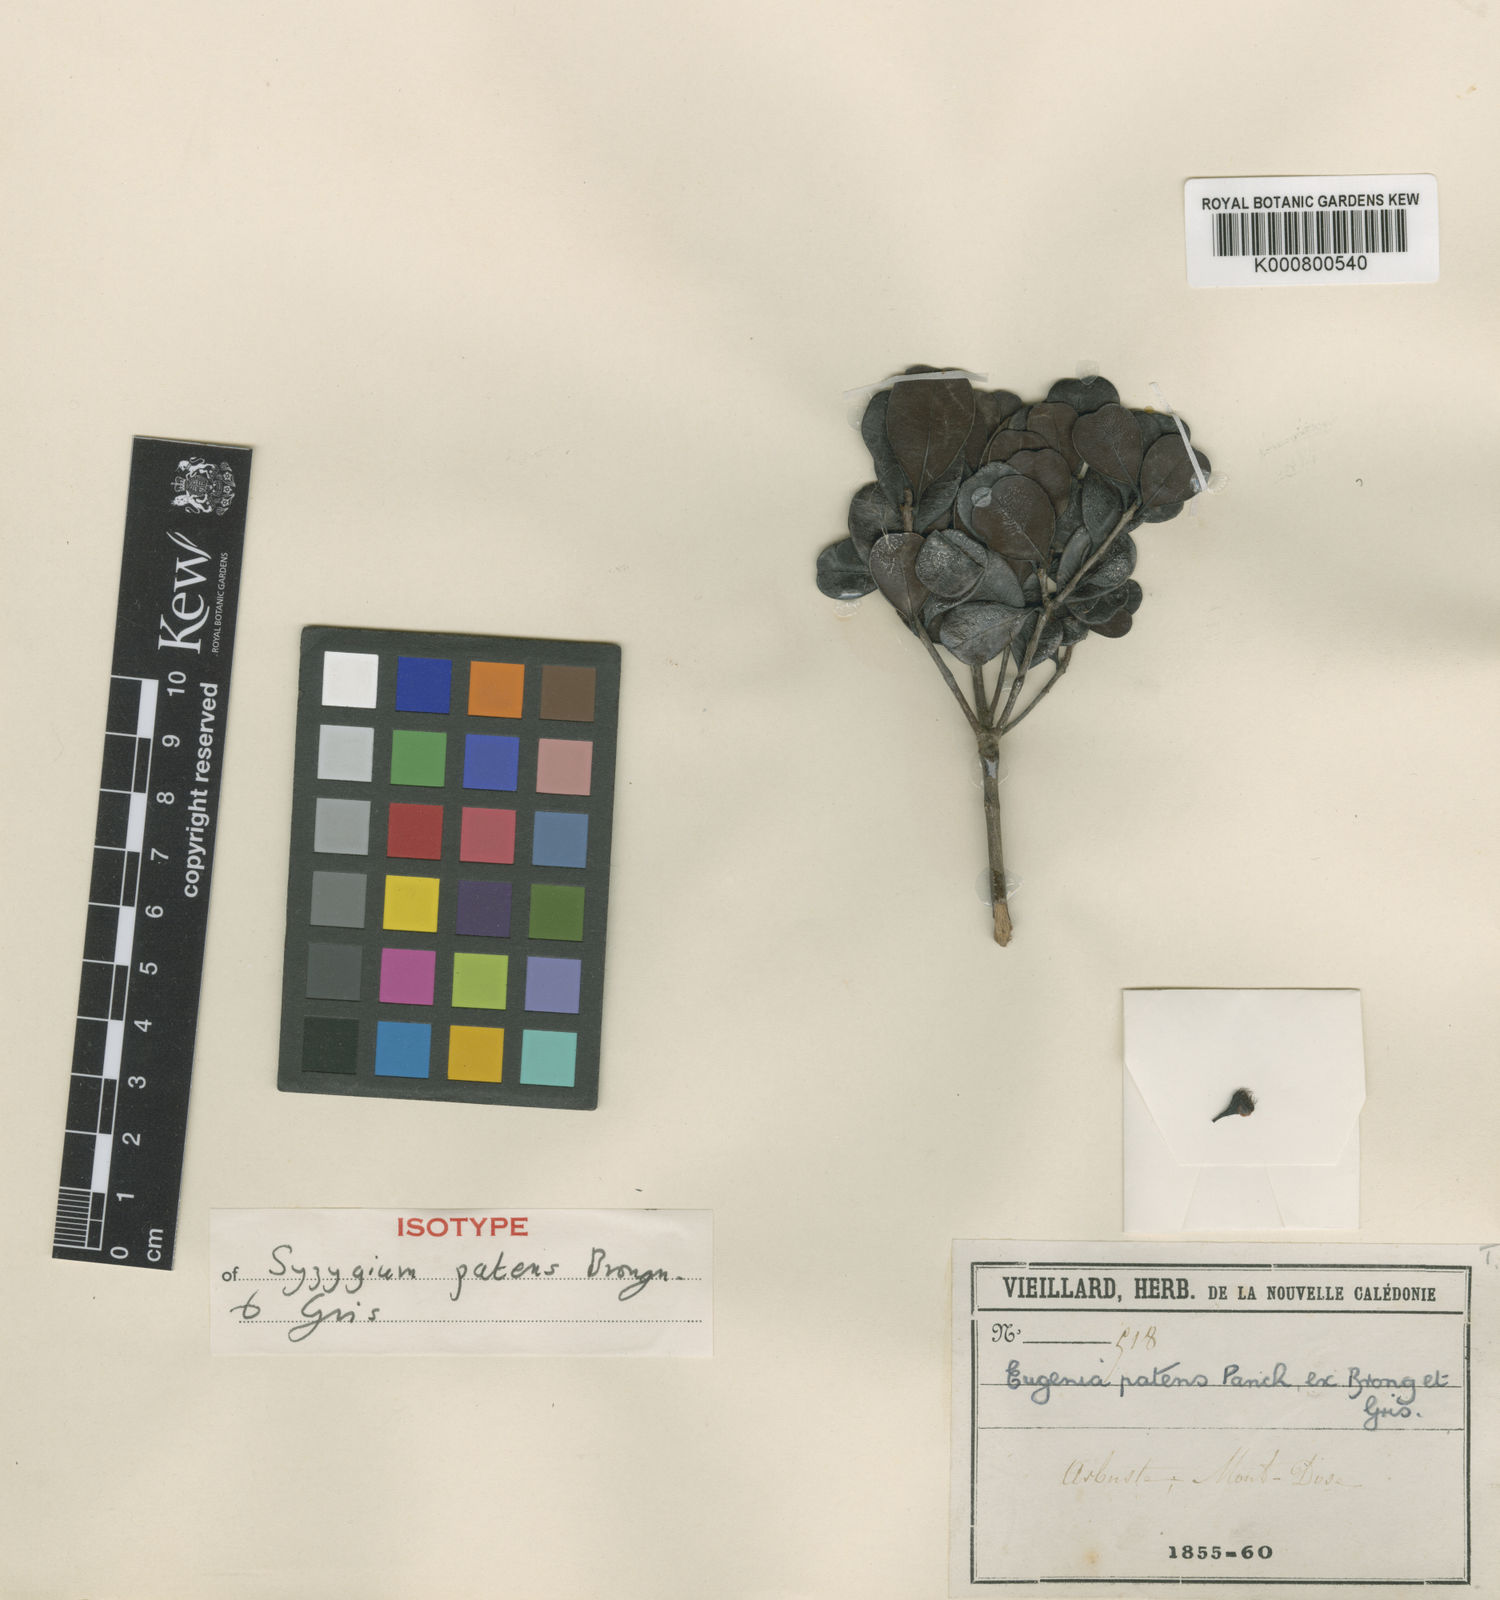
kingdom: Plantae
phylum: Tracheophyta
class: Magnoliopsida
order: Myrtales
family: Myrtaceae
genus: Syzygium
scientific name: Syzygium ngoyense
